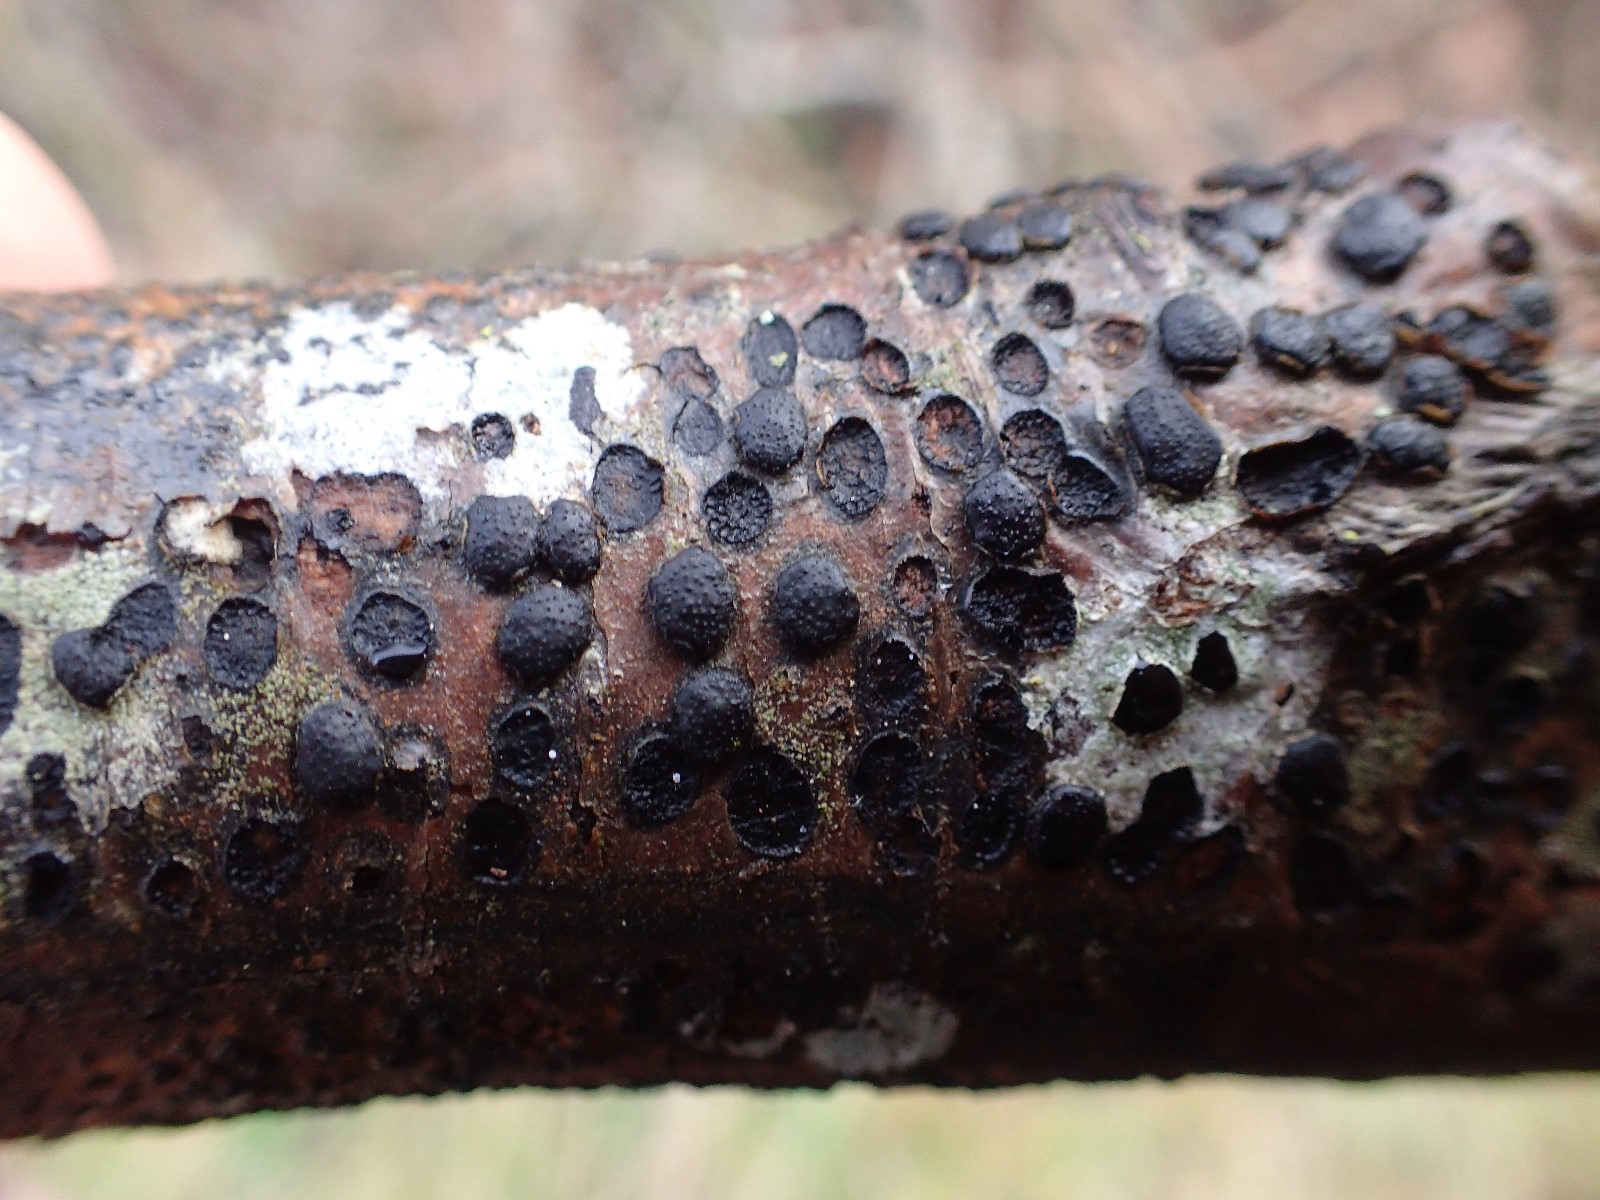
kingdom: Fungi
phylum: Ascomycota
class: Sordariomycetes
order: Xylariales
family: Diatrypaceae
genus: Diatrype
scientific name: Diatrype disciformis
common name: kant-kulskorpe
